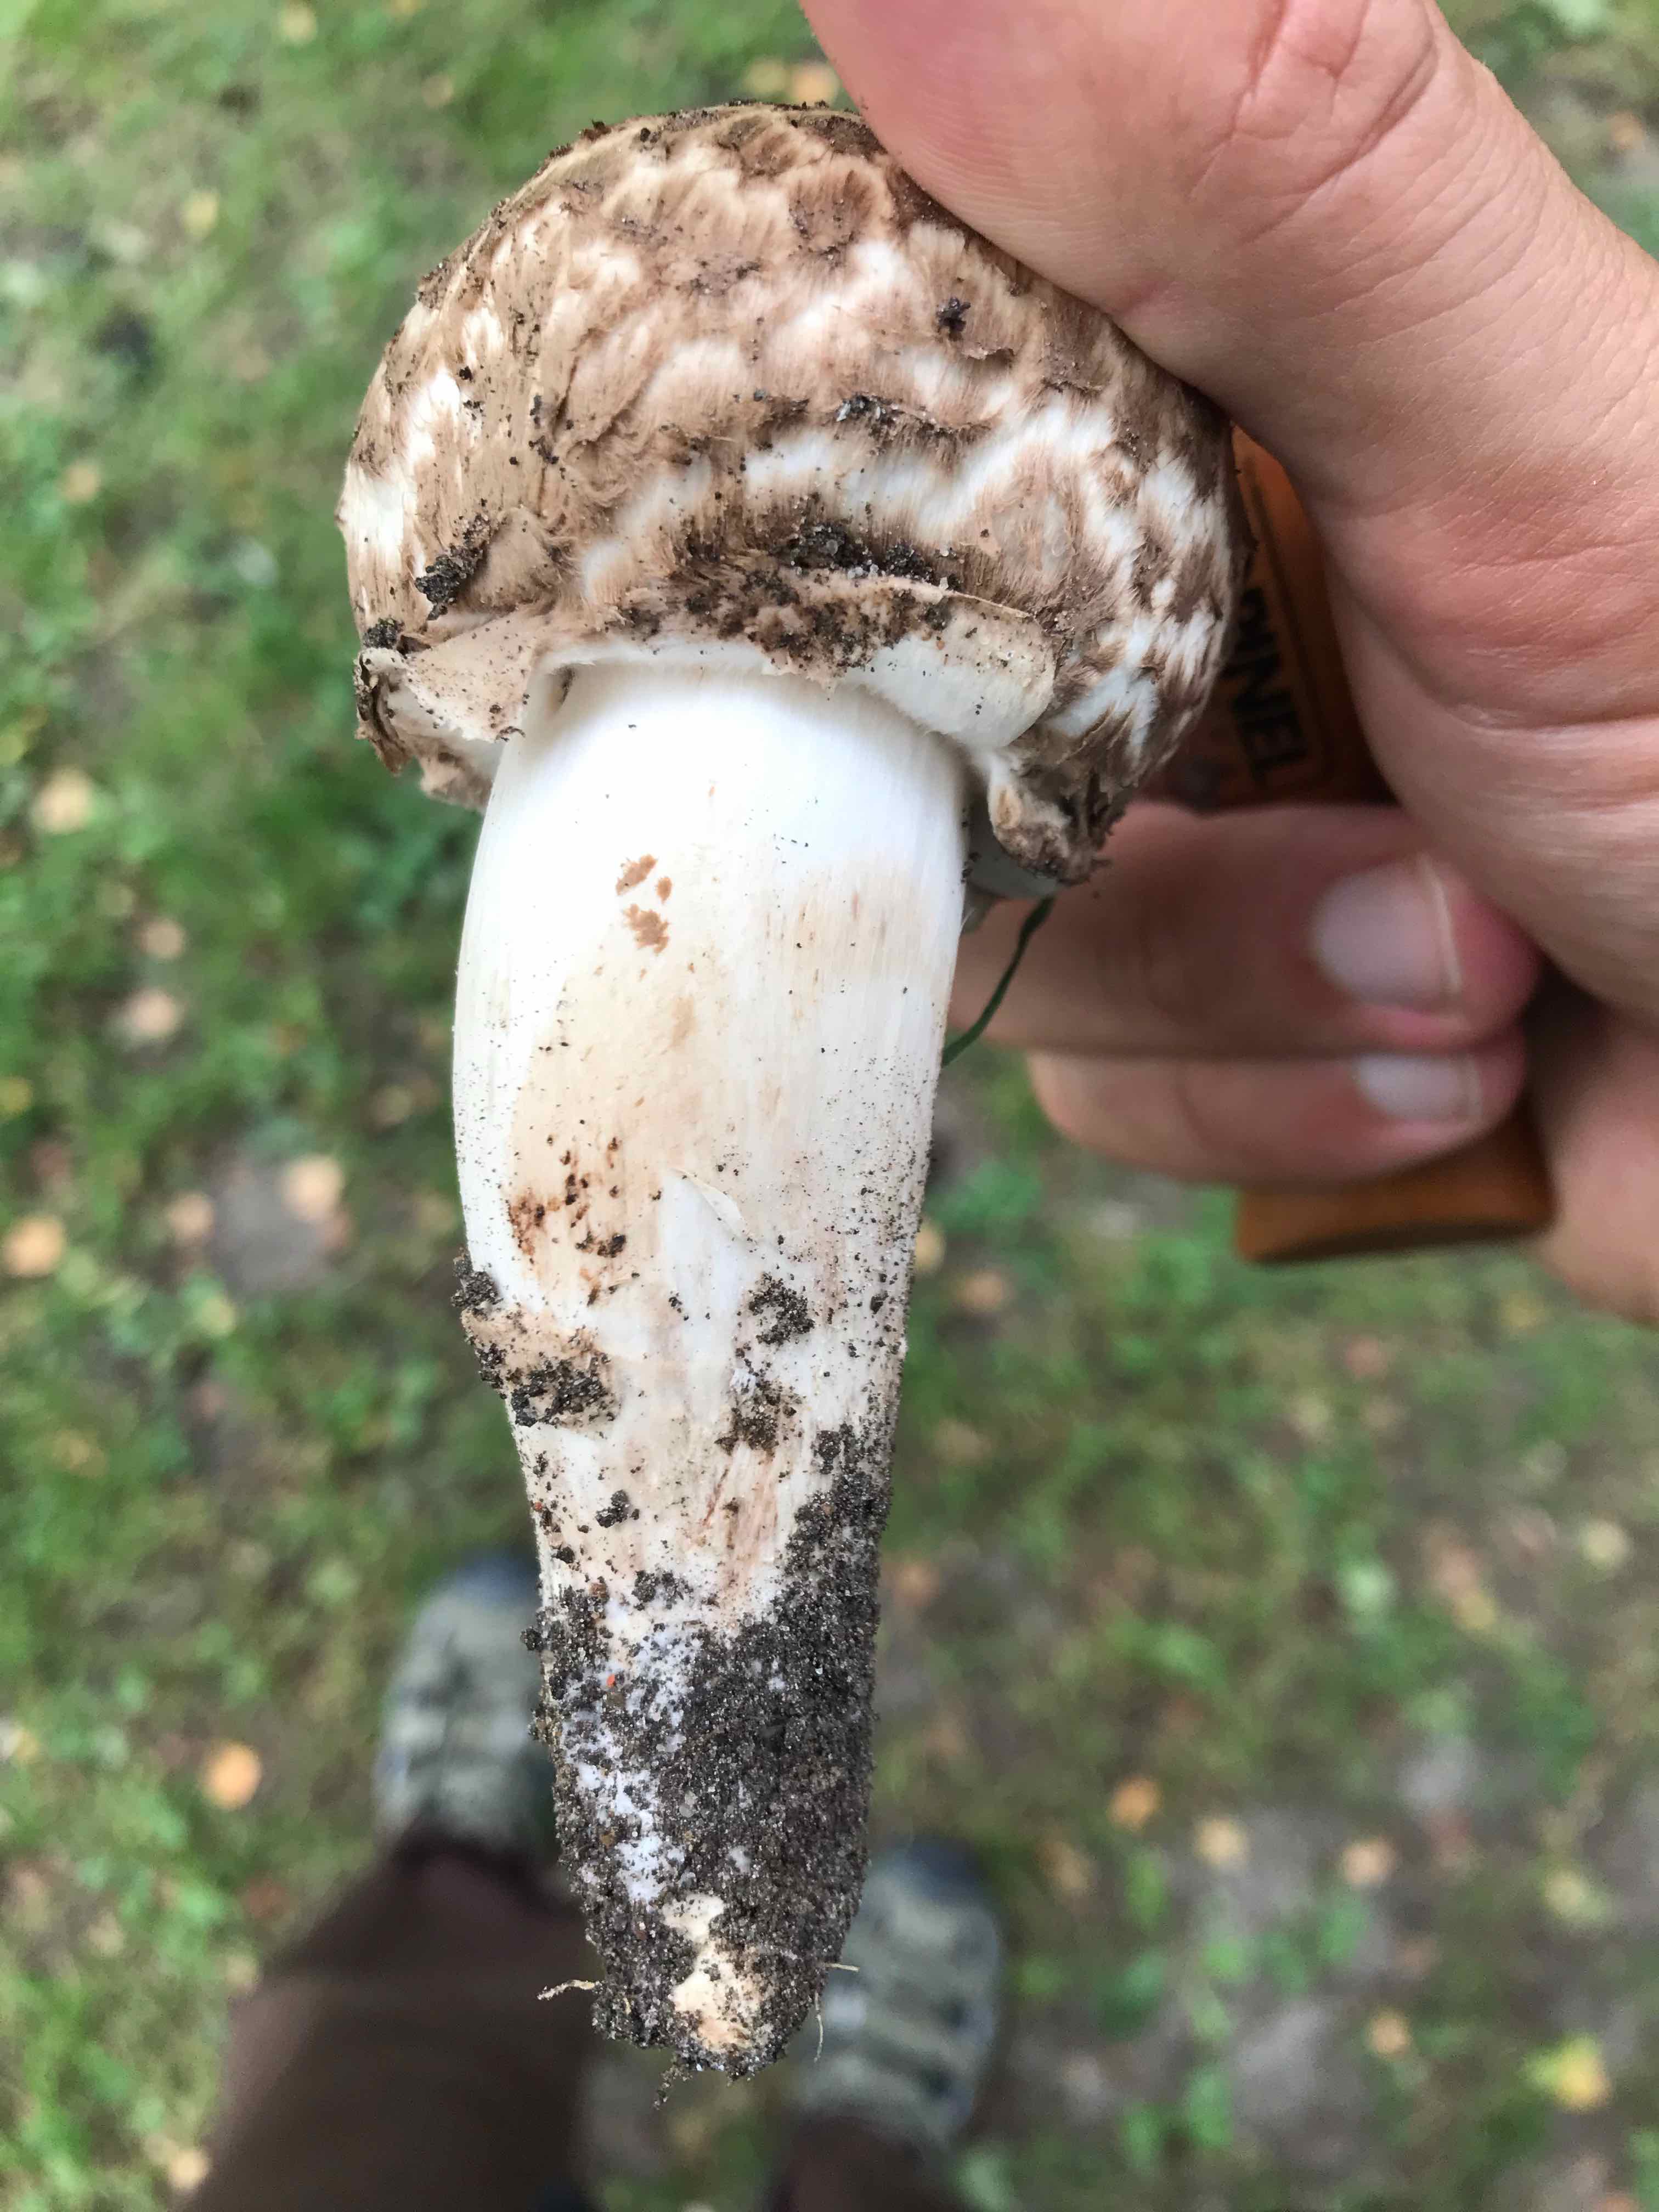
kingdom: Fungi
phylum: Basidiomycota
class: Agaricomycetes
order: Agaricales
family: Agaricaceae
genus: Agaricus
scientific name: Agaricus bohusii
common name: krumskællet champignon
